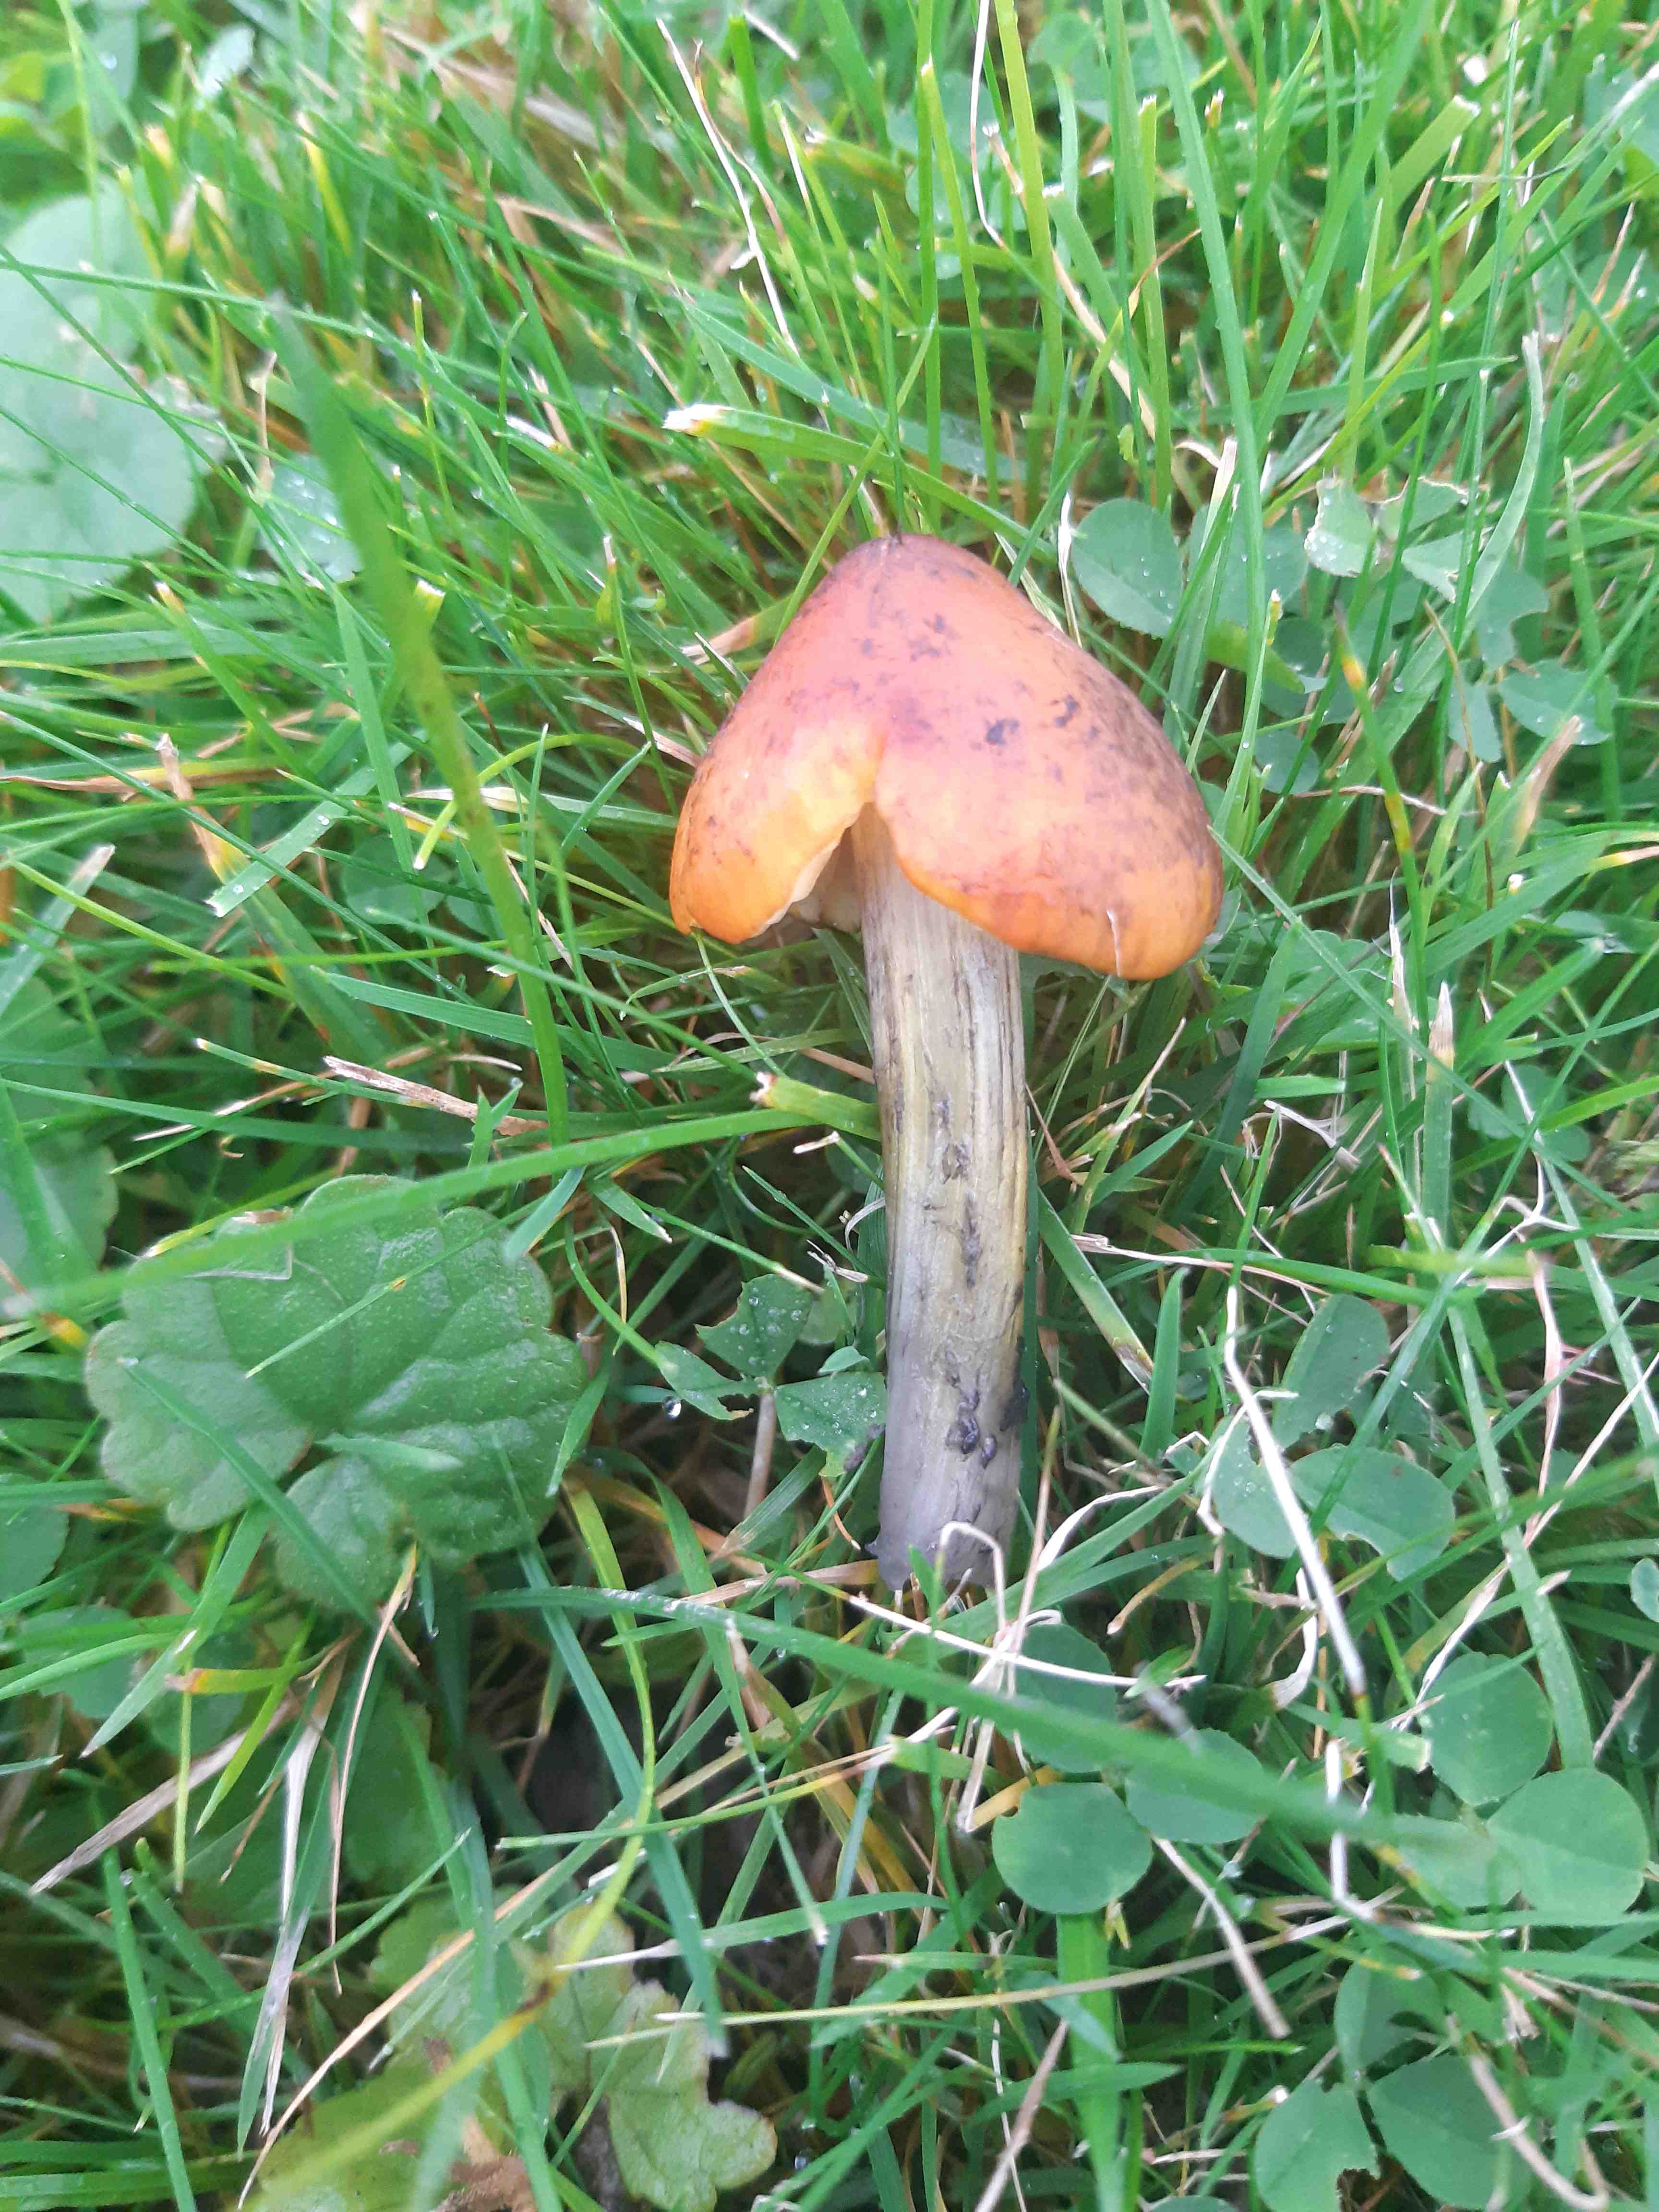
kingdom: Fungi
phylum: Basidiomycota
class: Agaricomycetes
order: Agaricales
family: Hygrophoraceae
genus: Hygrocybe
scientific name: Hygrocybe conica
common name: kegle-vokshat
